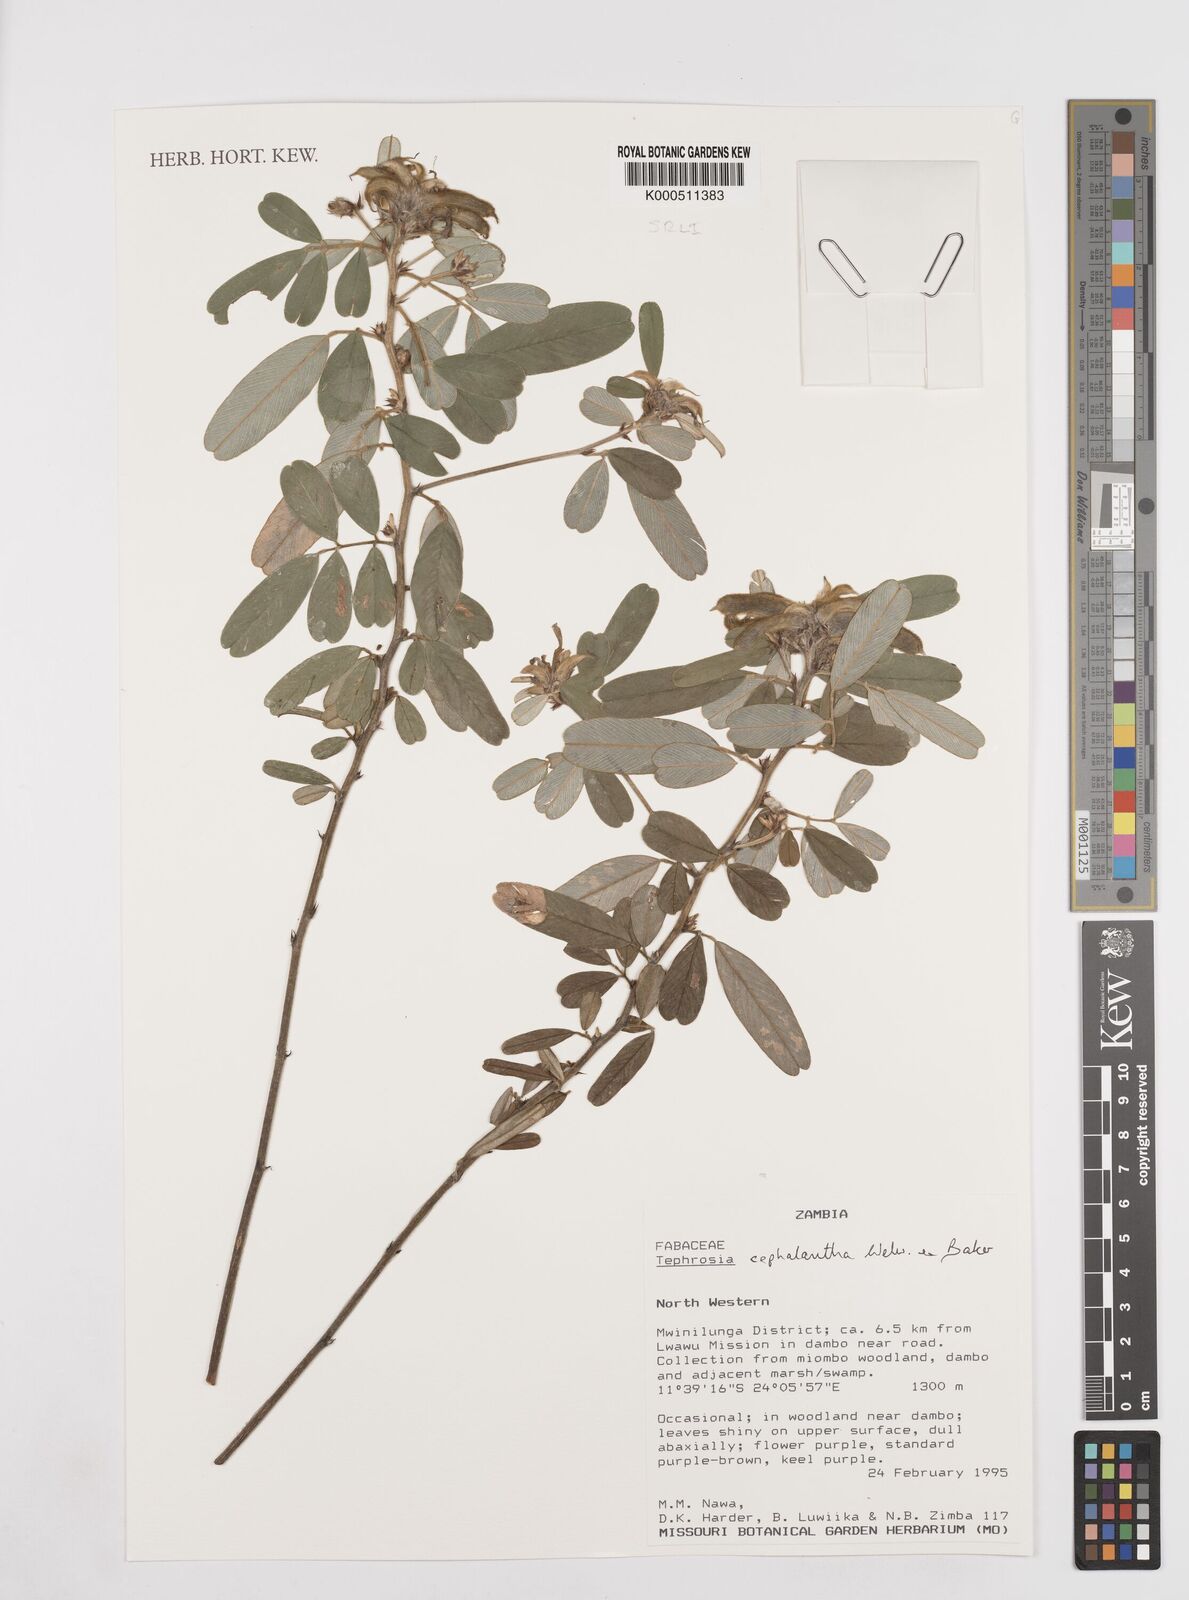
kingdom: Plantae
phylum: Tracheophyta
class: Magnoliopsida
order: Fabales
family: Fabaceae
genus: Tephrosia
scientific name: Tephrosia cephalantha
